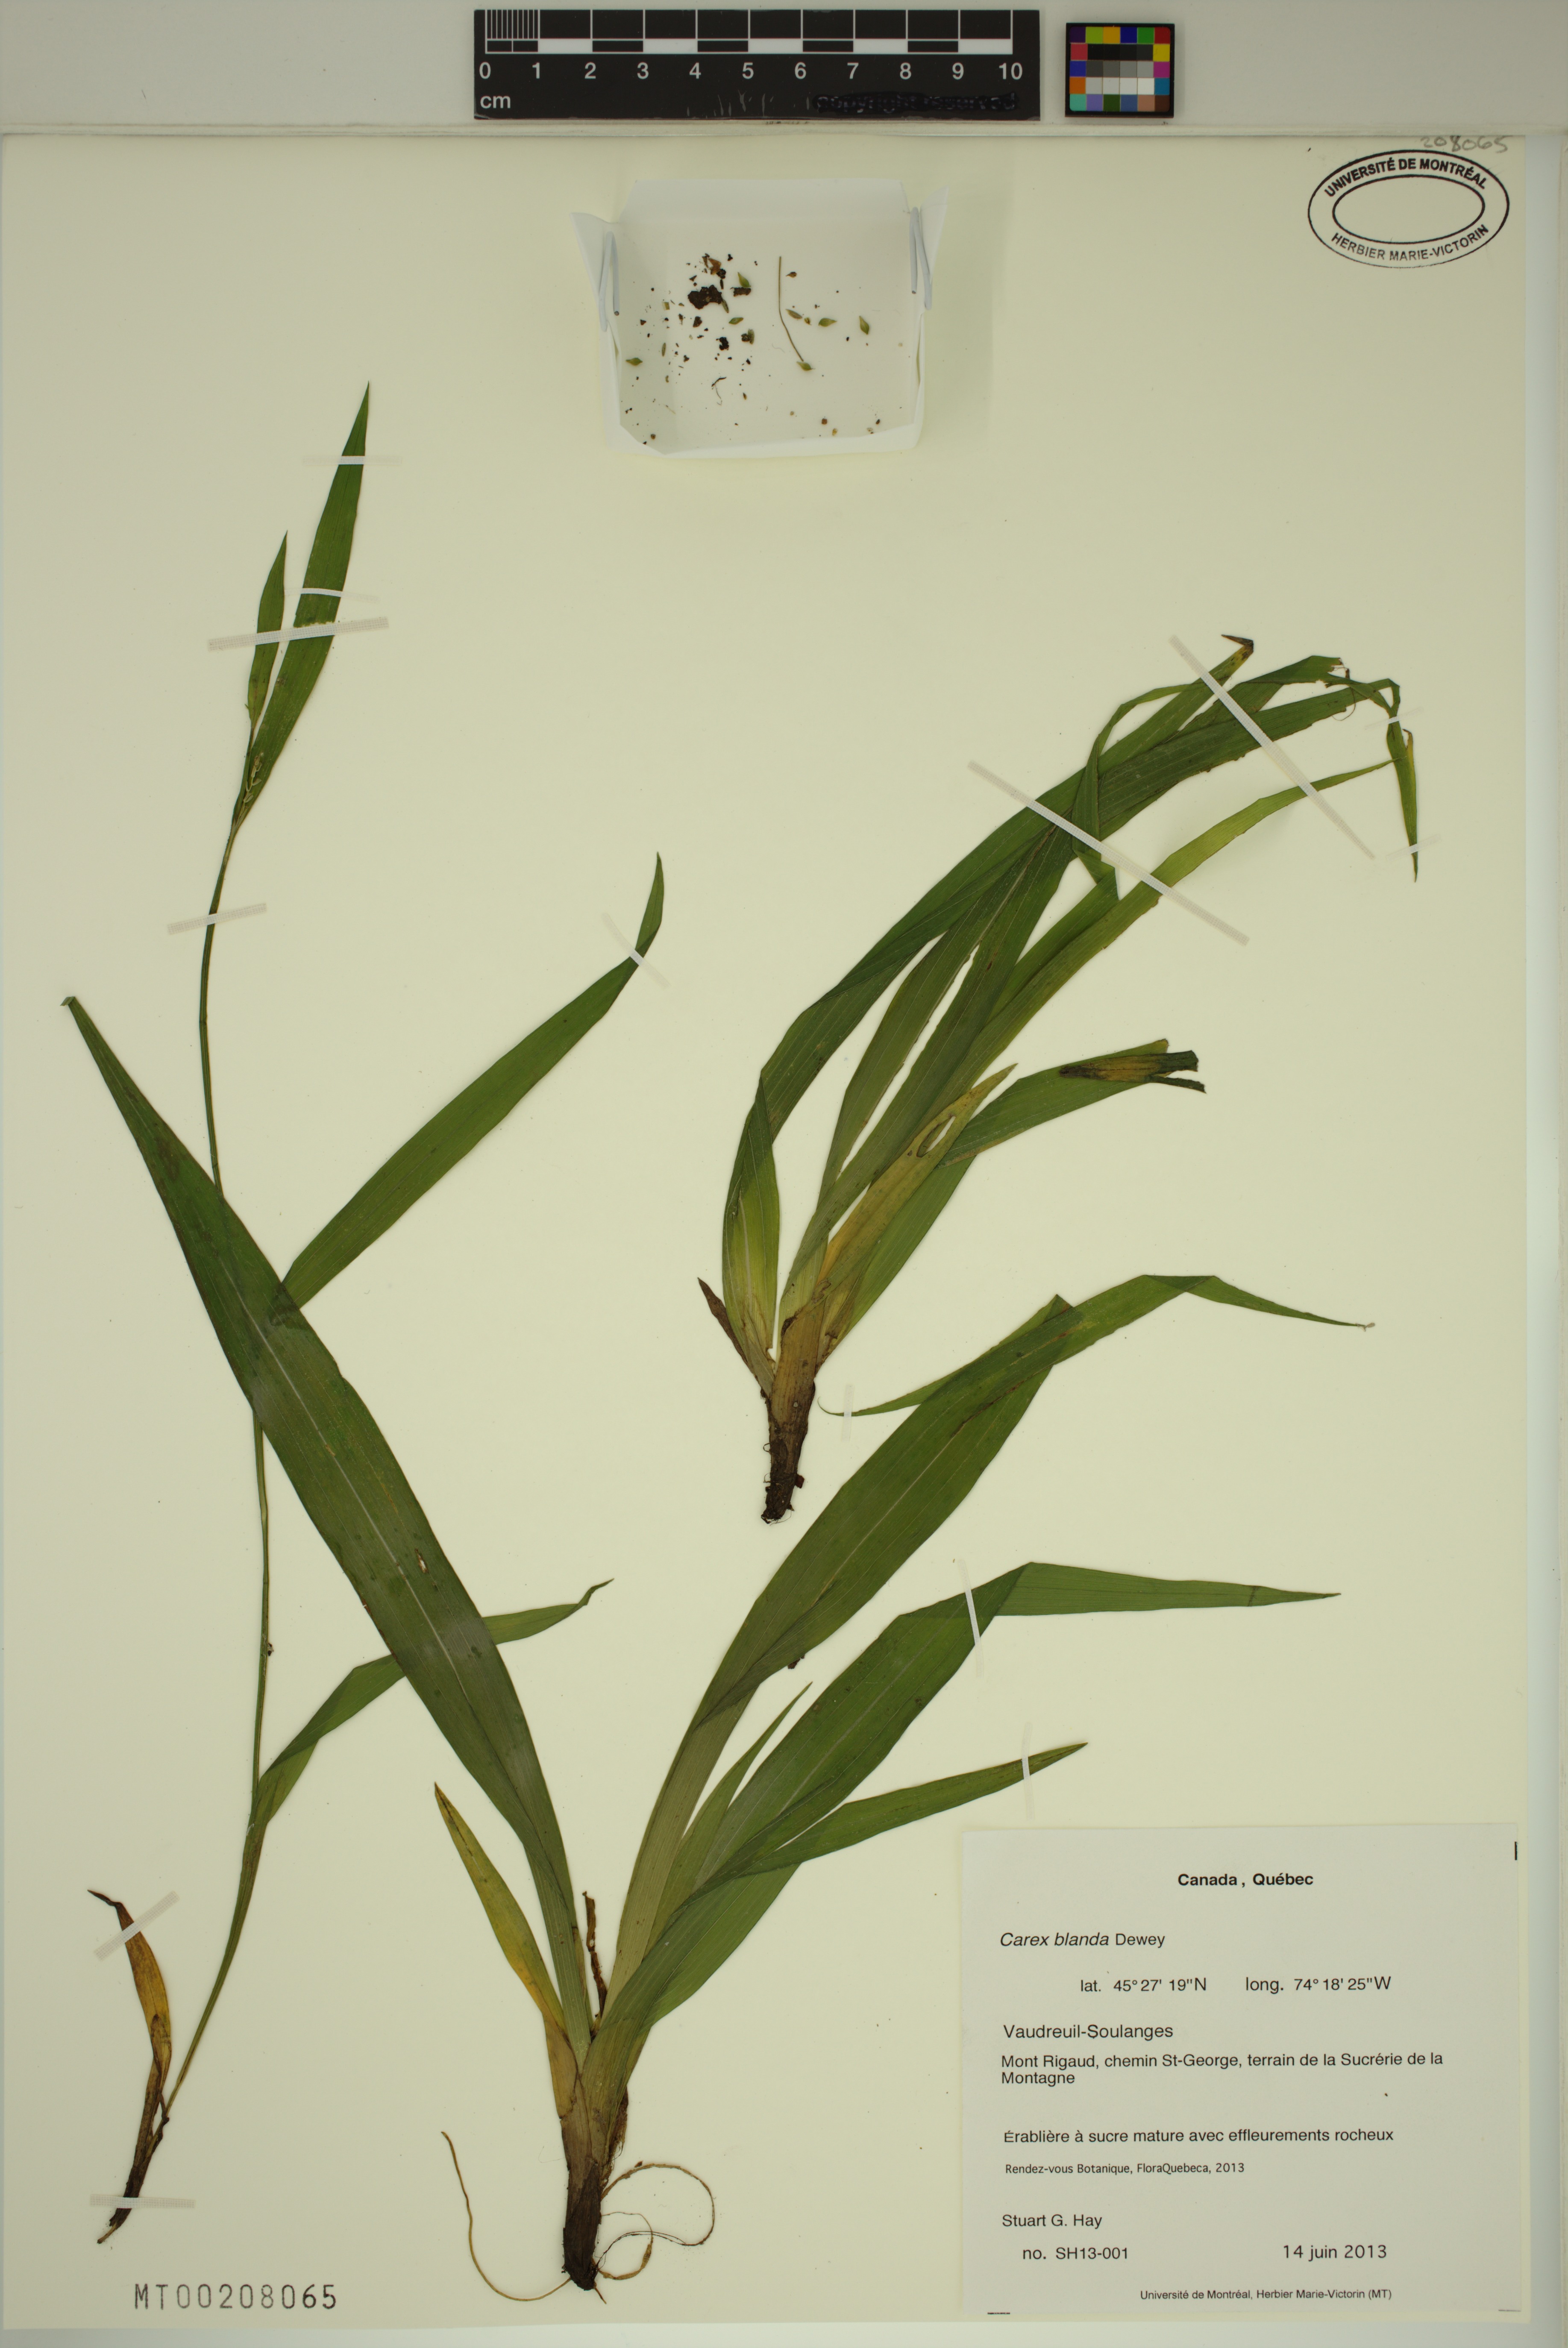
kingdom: Plantae
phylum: Tracheophyta
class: Liliopsida
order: Poales
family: Cyperaceae
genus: Carex
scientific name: Carex blanda
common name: Bland sedge
